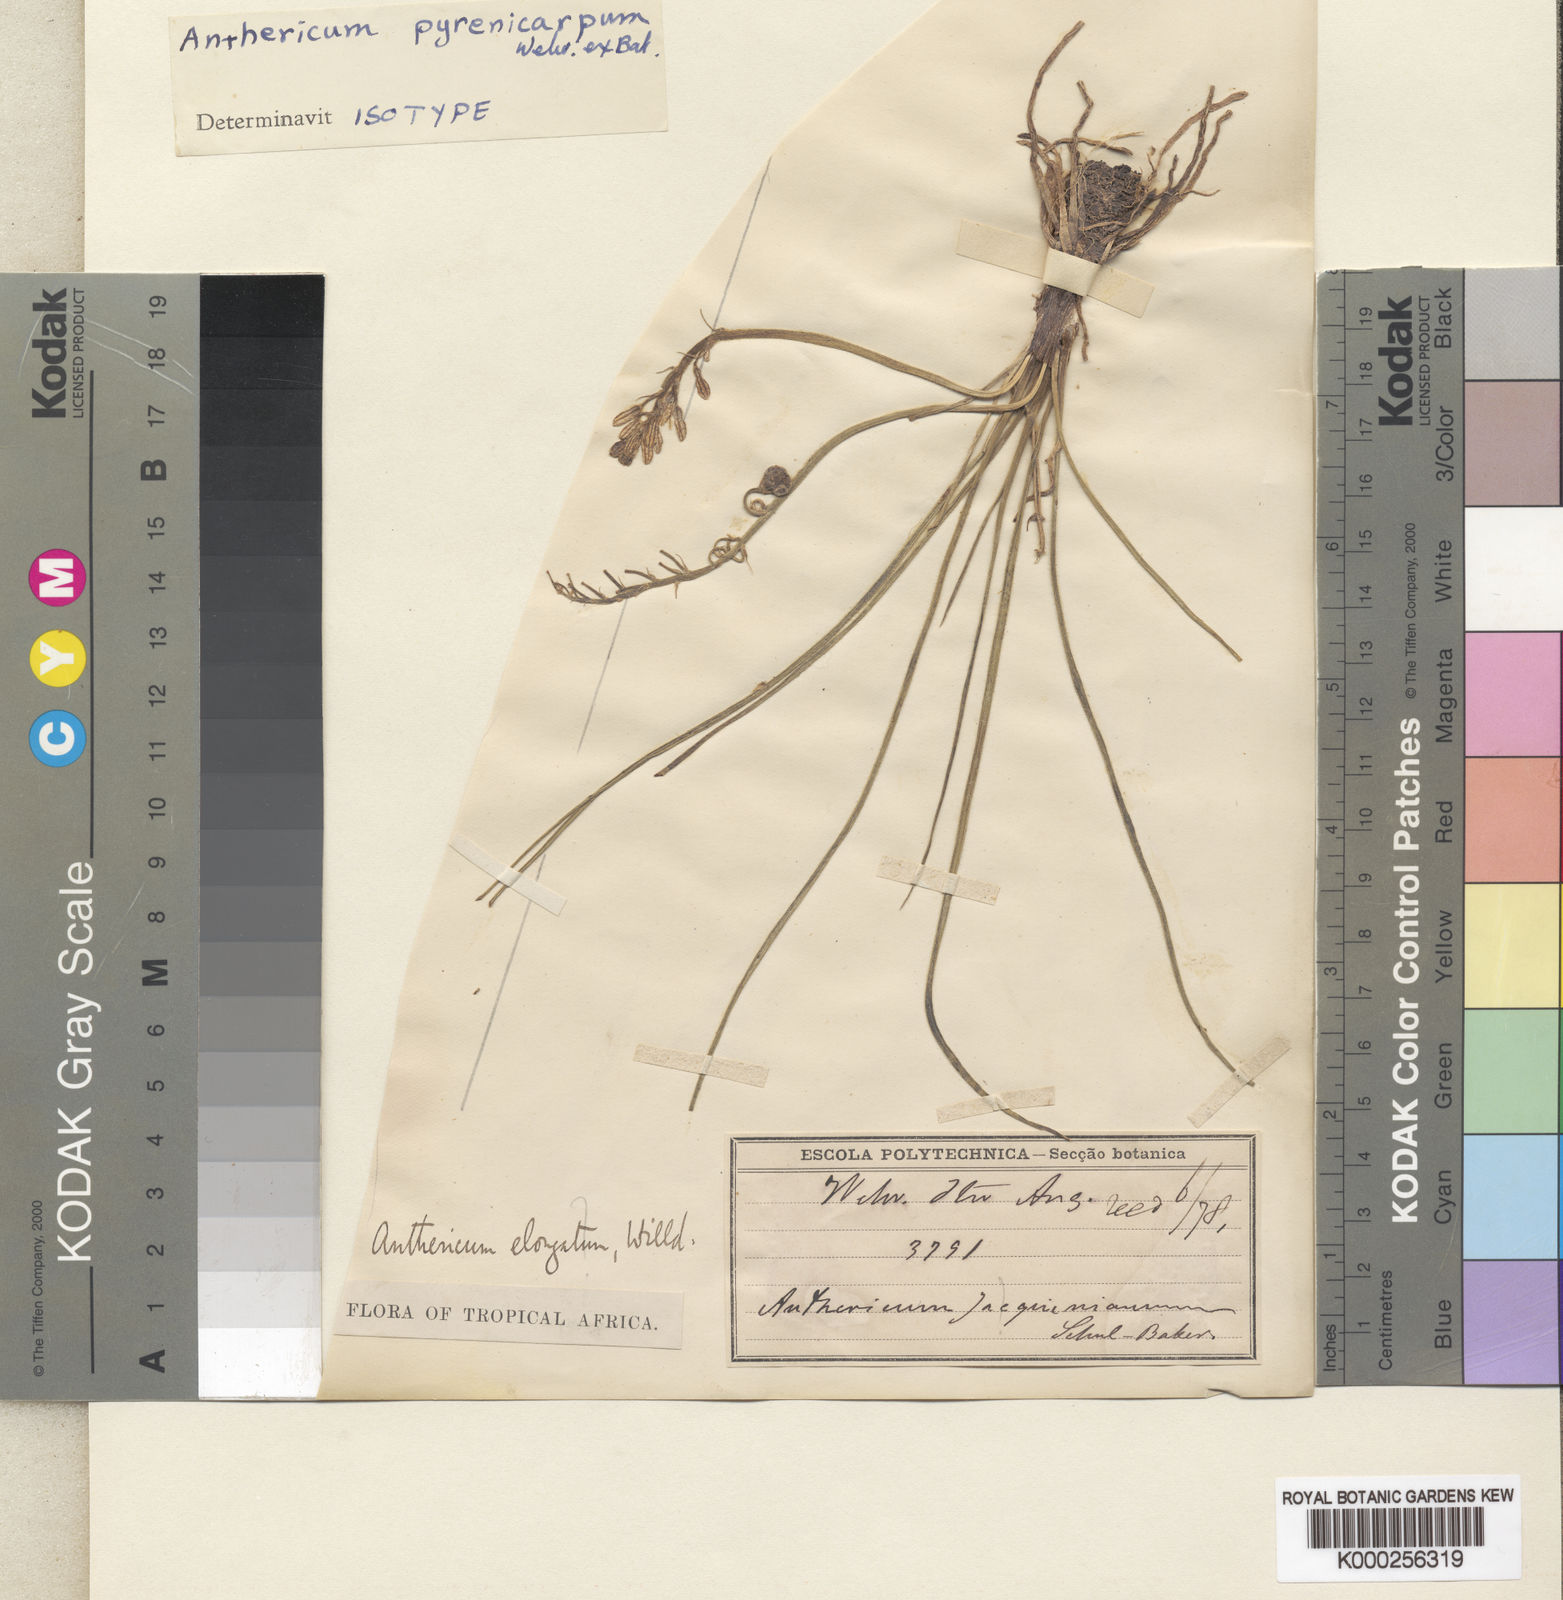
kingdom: Plantae
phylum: Tracheophyta
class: Liliopsida
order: Asparagales
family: Asphodelaceae
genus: Trachyandra
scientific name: Trachyandra pyrenicarpa
